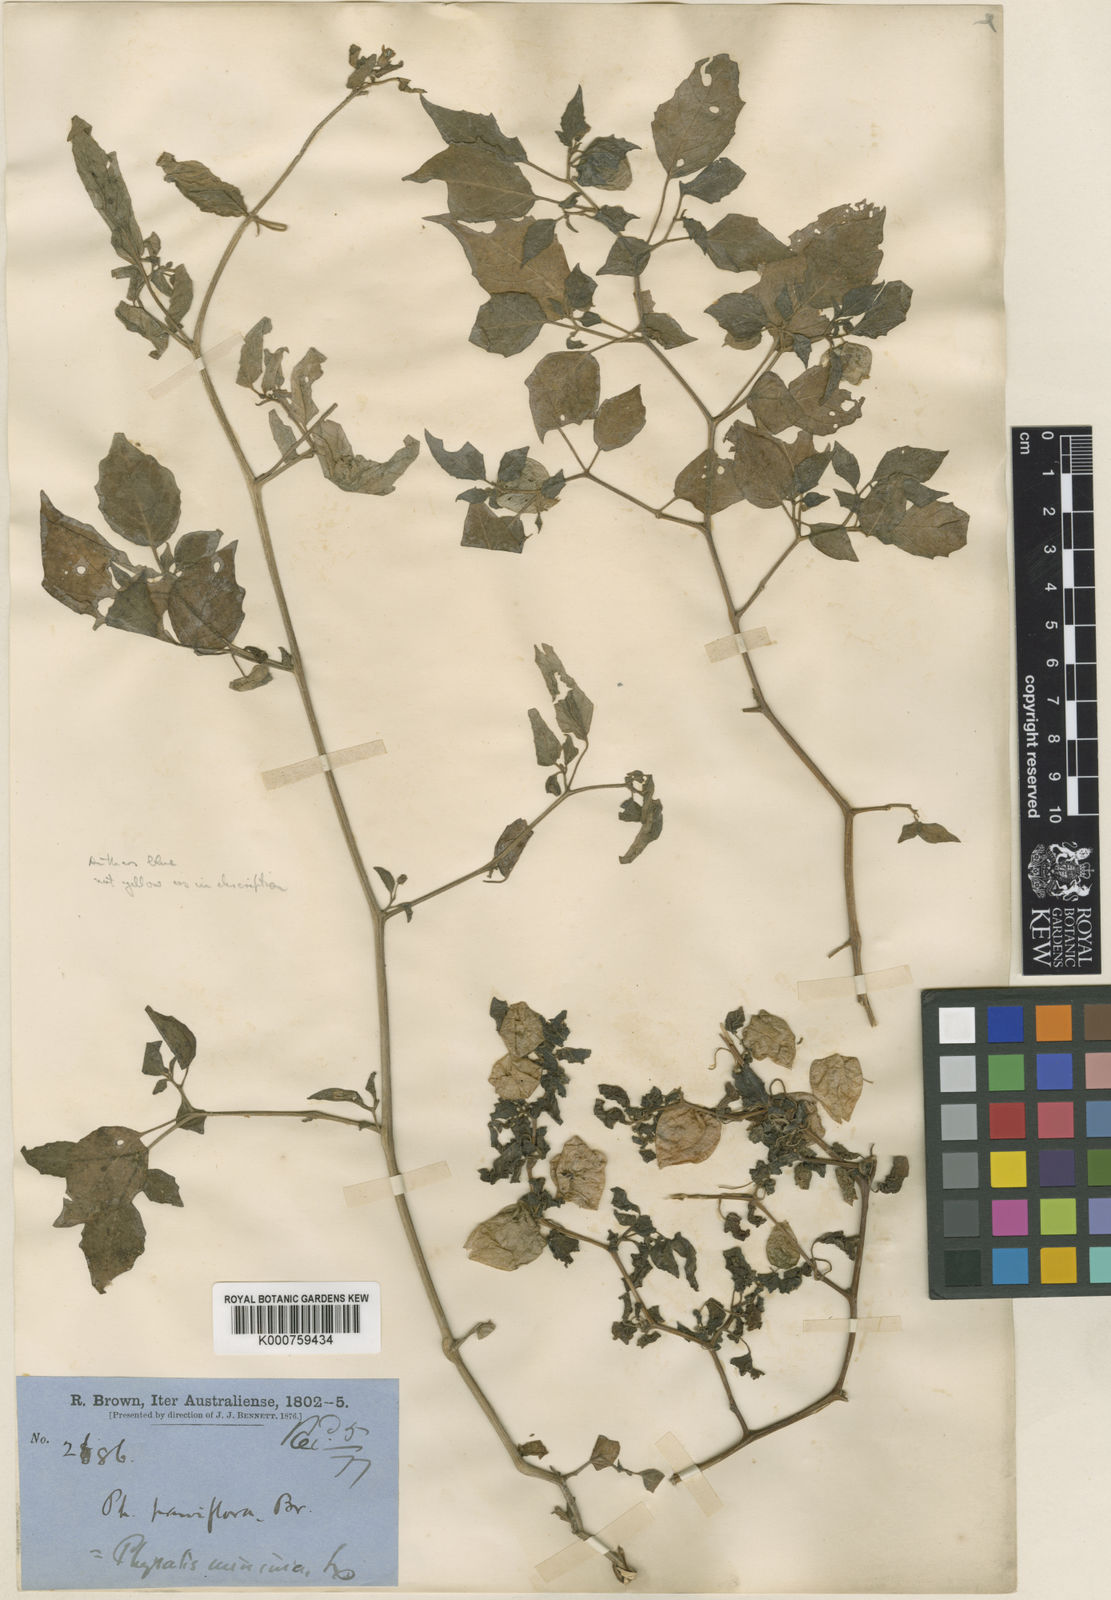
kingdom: Plantae
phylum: Tracheophyta
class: Magnoliopsida
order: Solanales
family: Solanaceae
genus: Physalis
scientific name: Physalis angulata
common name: Angular winter-cherry
